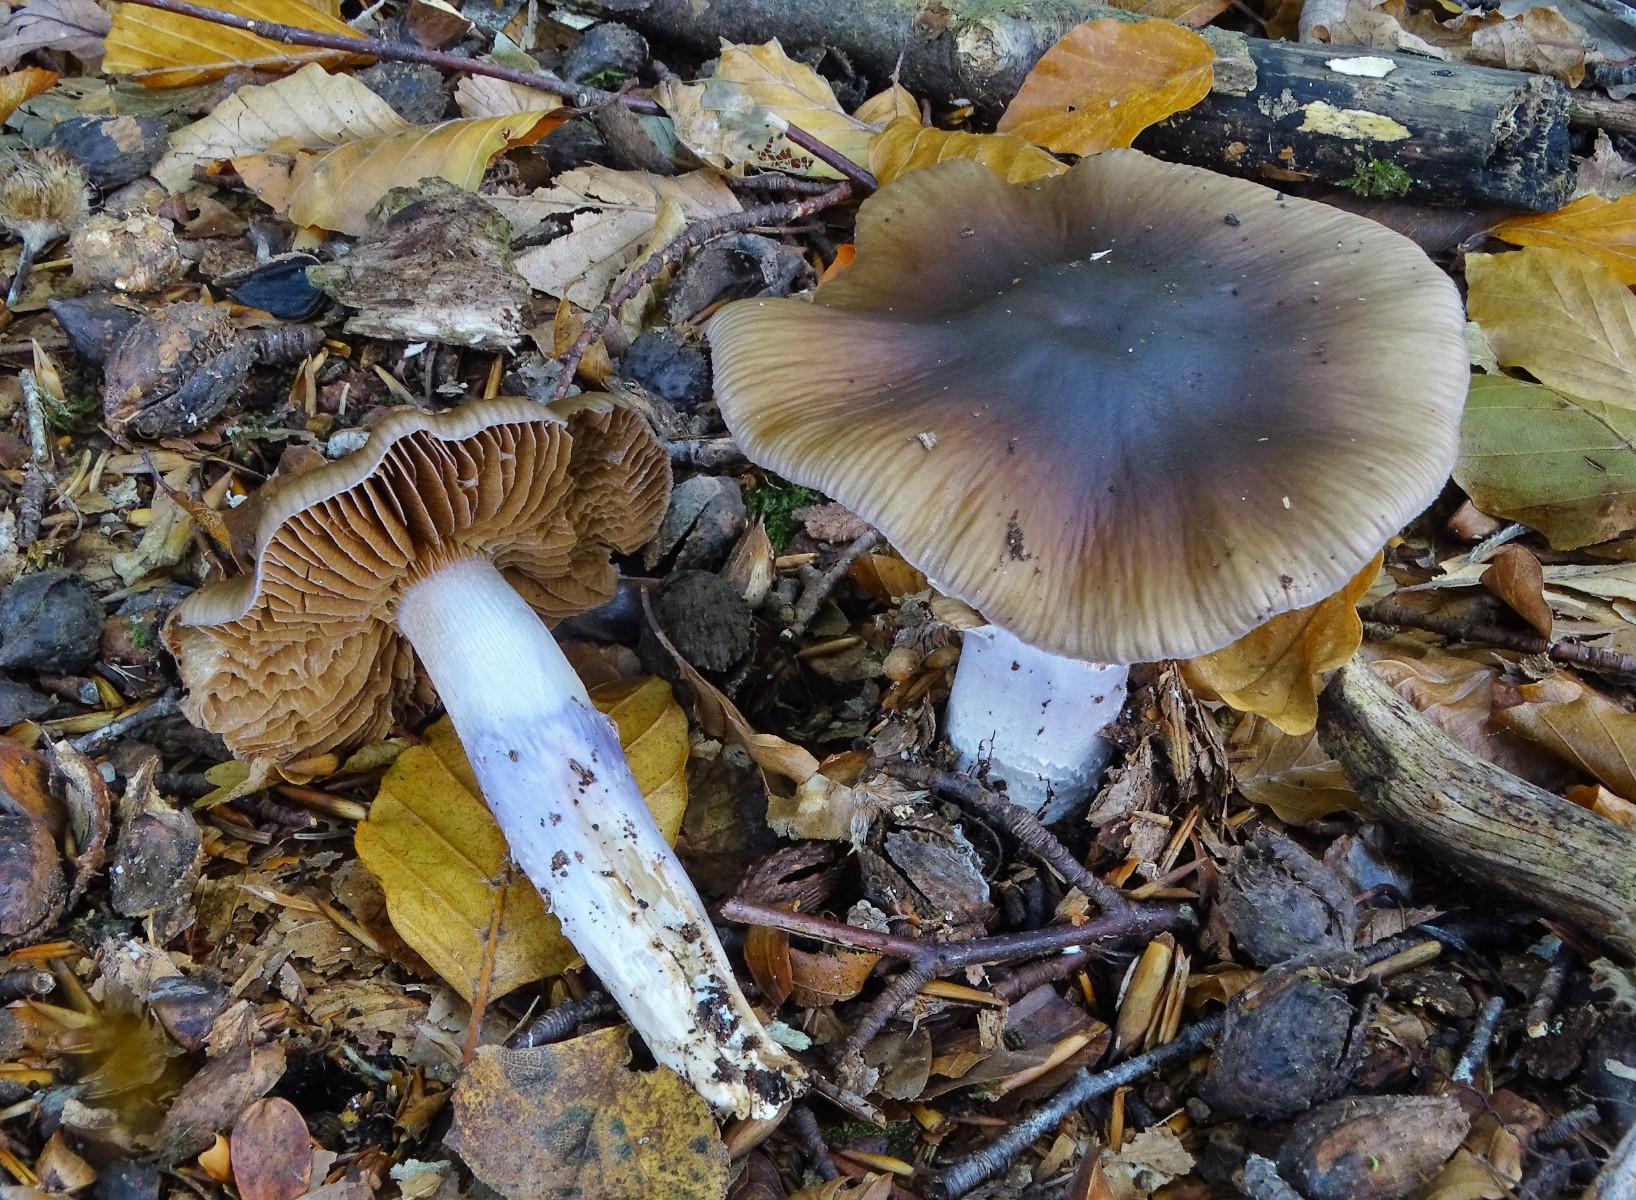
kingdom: Fungi
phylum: Basidiomycota
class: Agaricomycetes
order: Agaricales
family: Cortinariaceae
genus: Cortinarius
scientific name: Cortinarius elatior
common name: høj slørhat
